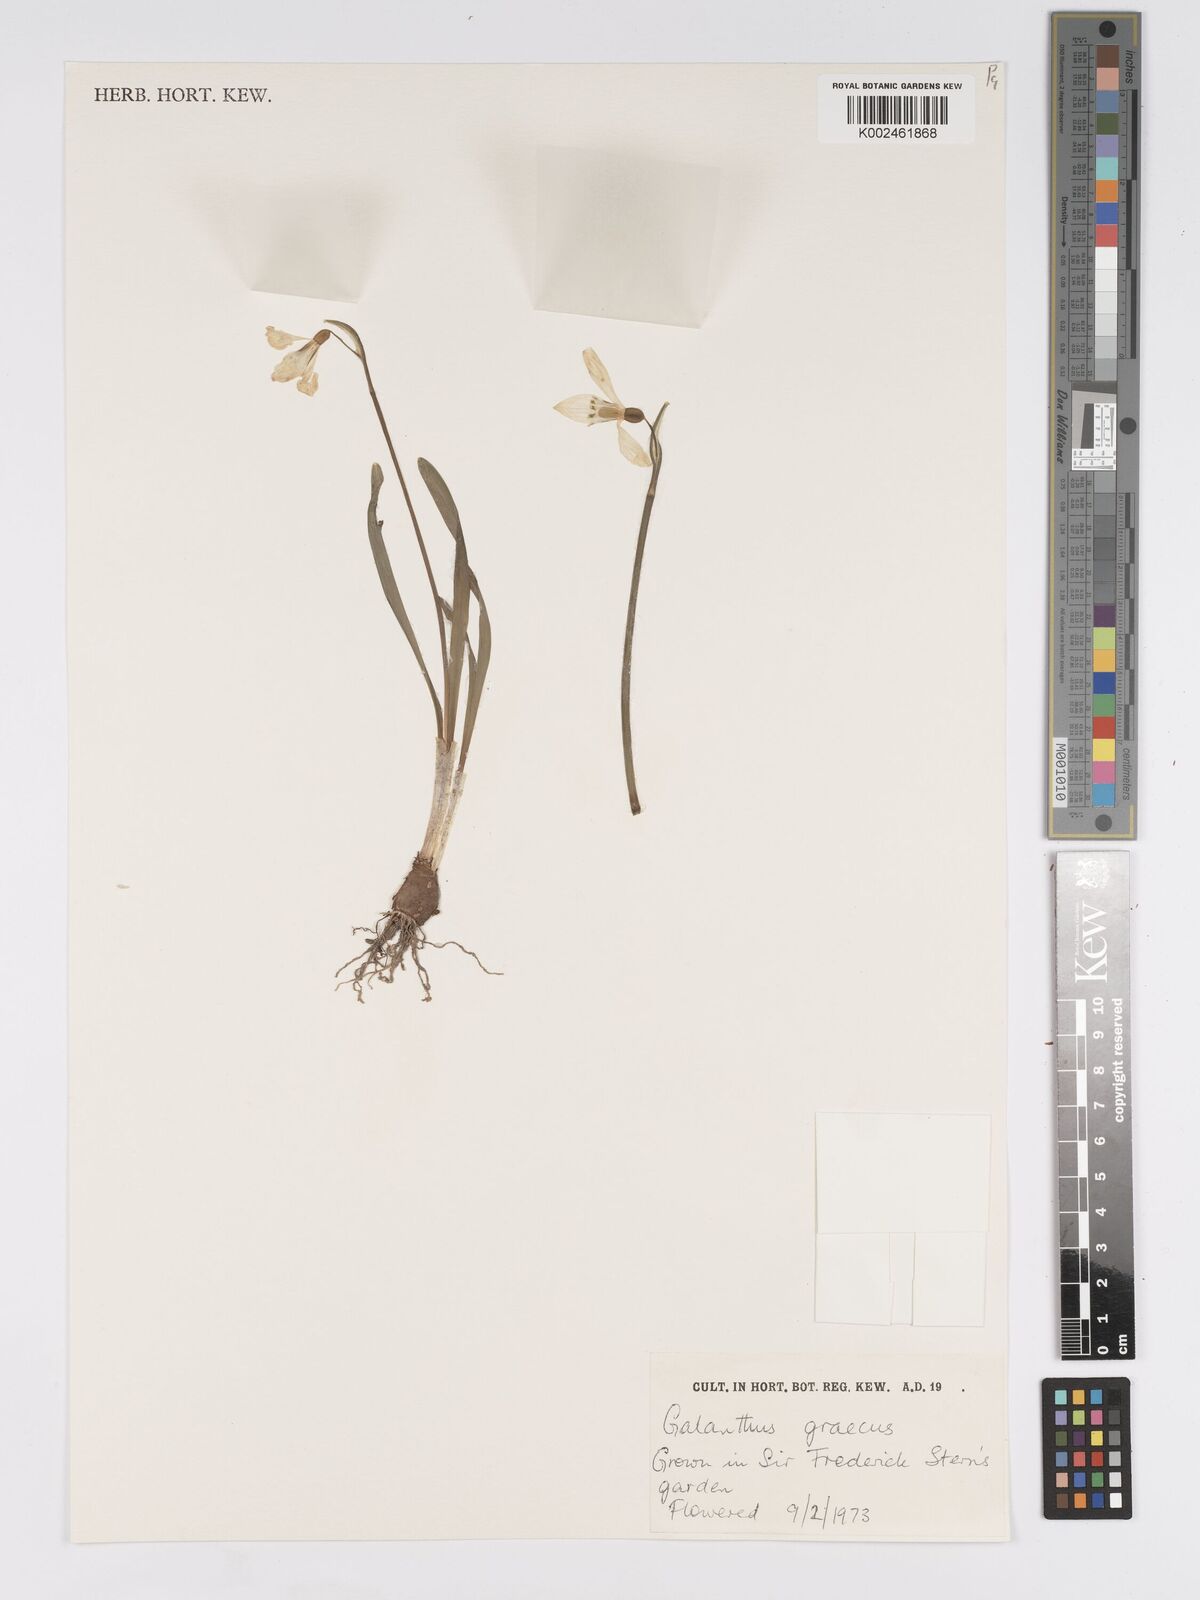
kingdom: Plantae
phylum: Tracheophyta
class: Liliopsida
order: Asparagales
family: Amaryllidaceae
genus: Galanthus
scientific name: Galanthus elwesii
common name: Greater snowdrop
